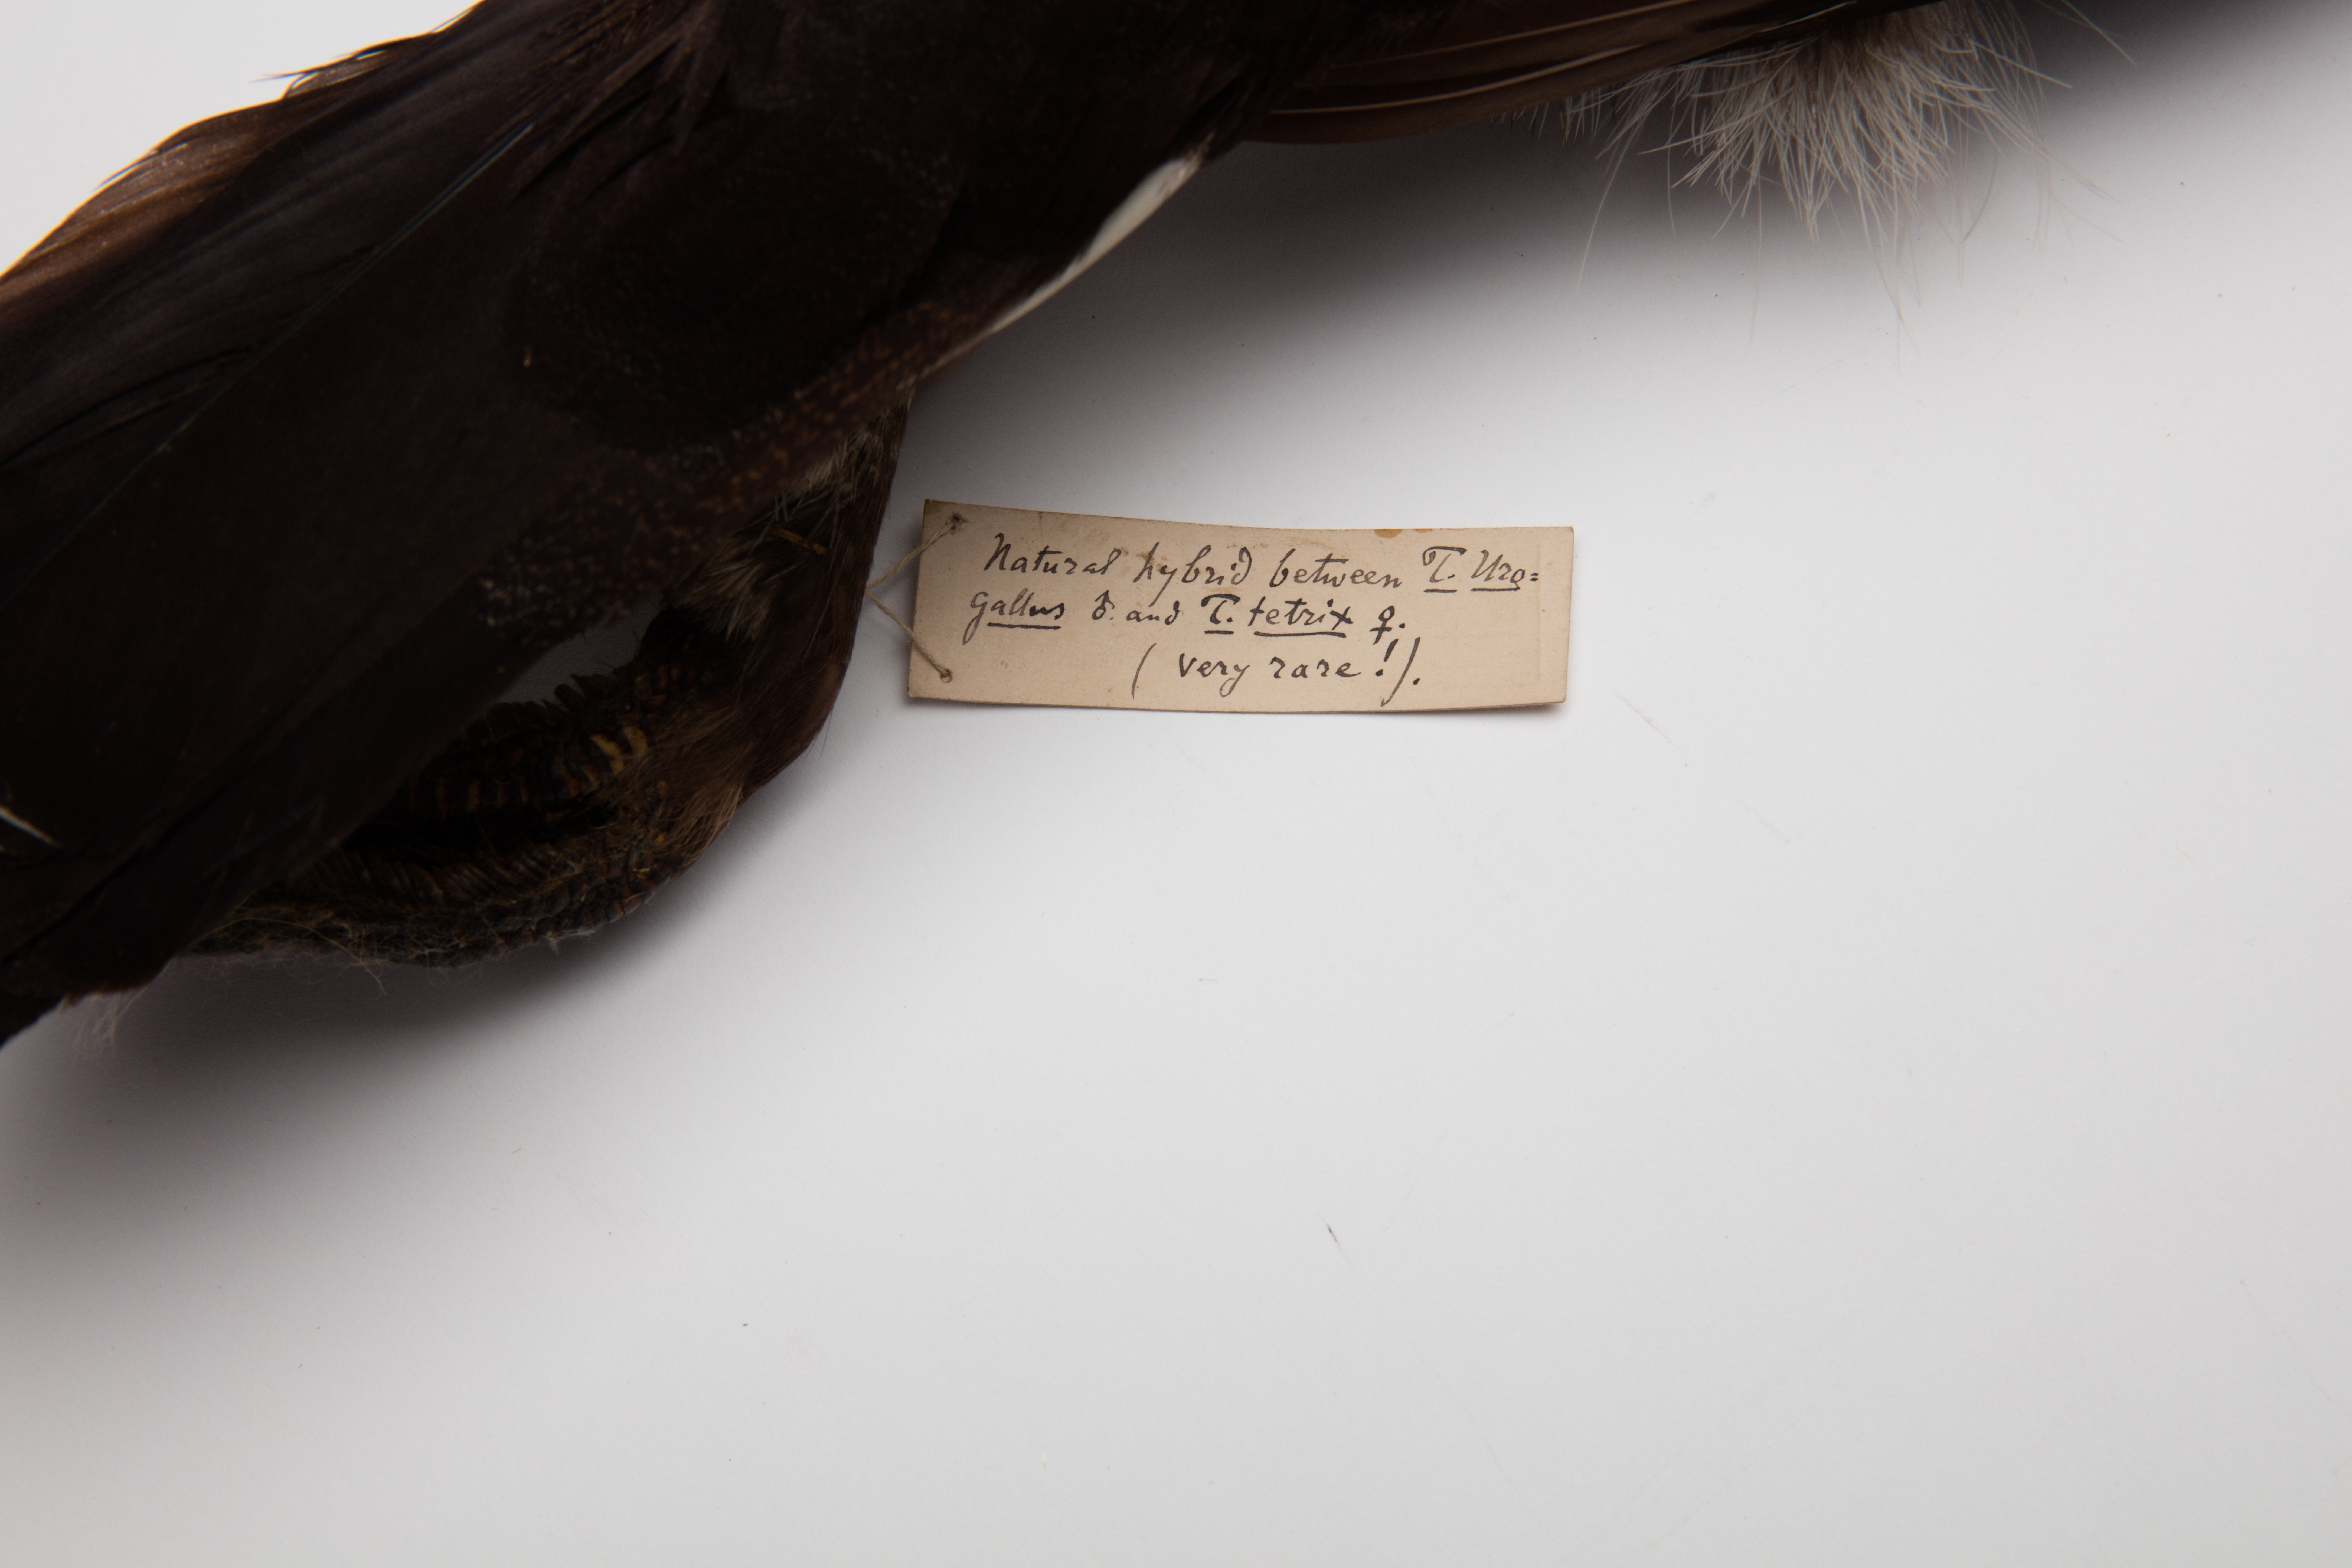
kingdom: Animalia
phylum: Chordata
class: Aves
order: Galliformes
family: Phasianidae
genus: Lyrurus
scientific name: Lyrurus tetrix
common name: Black grouse
